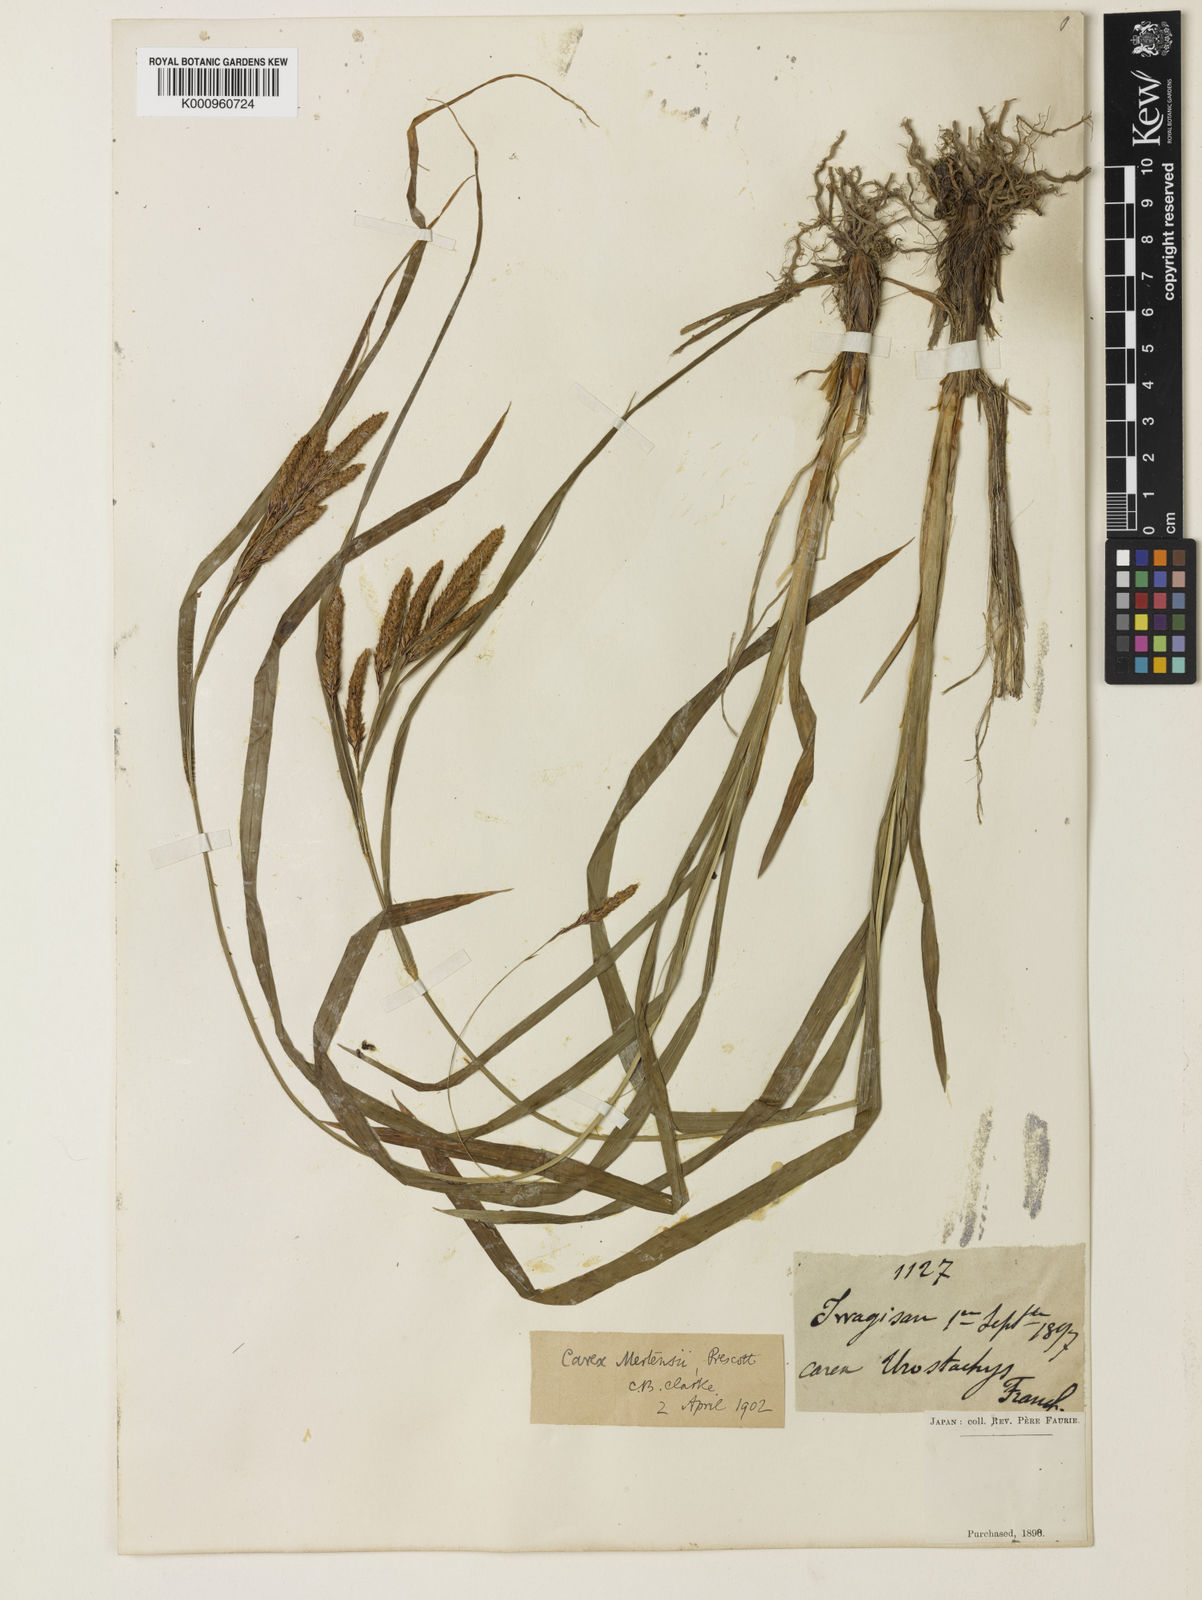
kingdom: Plantae
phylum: Tracheophyta
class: Liliopsida
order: Poales
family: Cyperaceae
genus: Carex
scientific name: Carex mertensii
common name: Mertens' sedge
